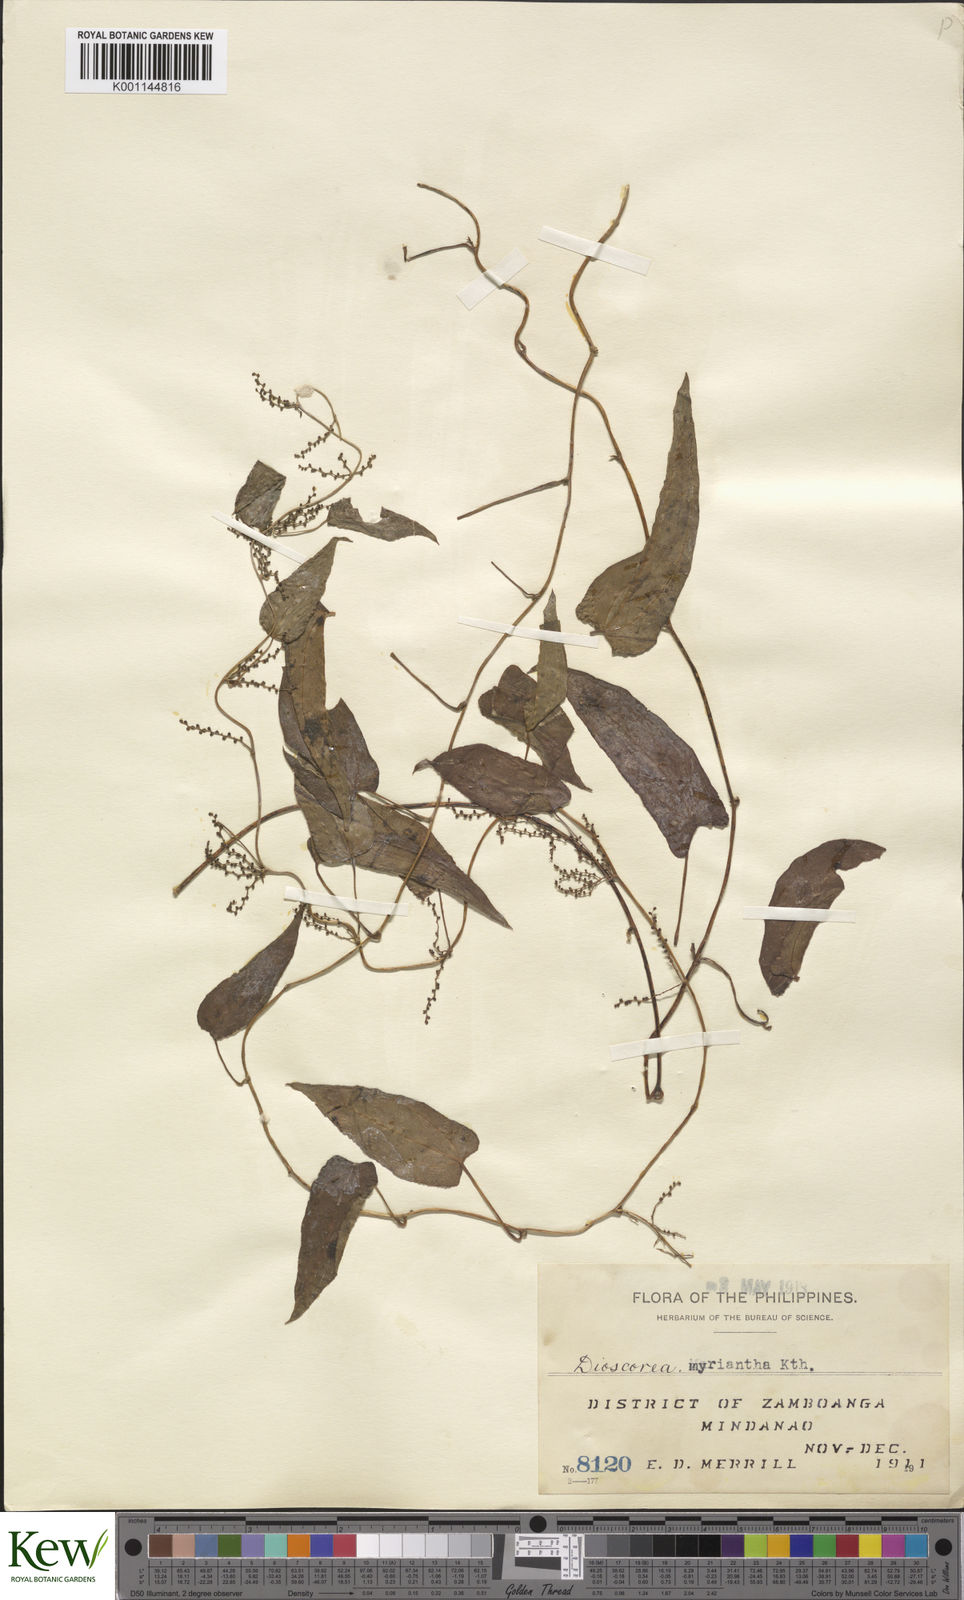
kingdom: Plantae
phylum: Tracheophyta
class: Liliopsida
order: Dioscoreales
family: Dioscoreaceae
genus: Dioscorea
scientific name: Dioscorea filiformis
